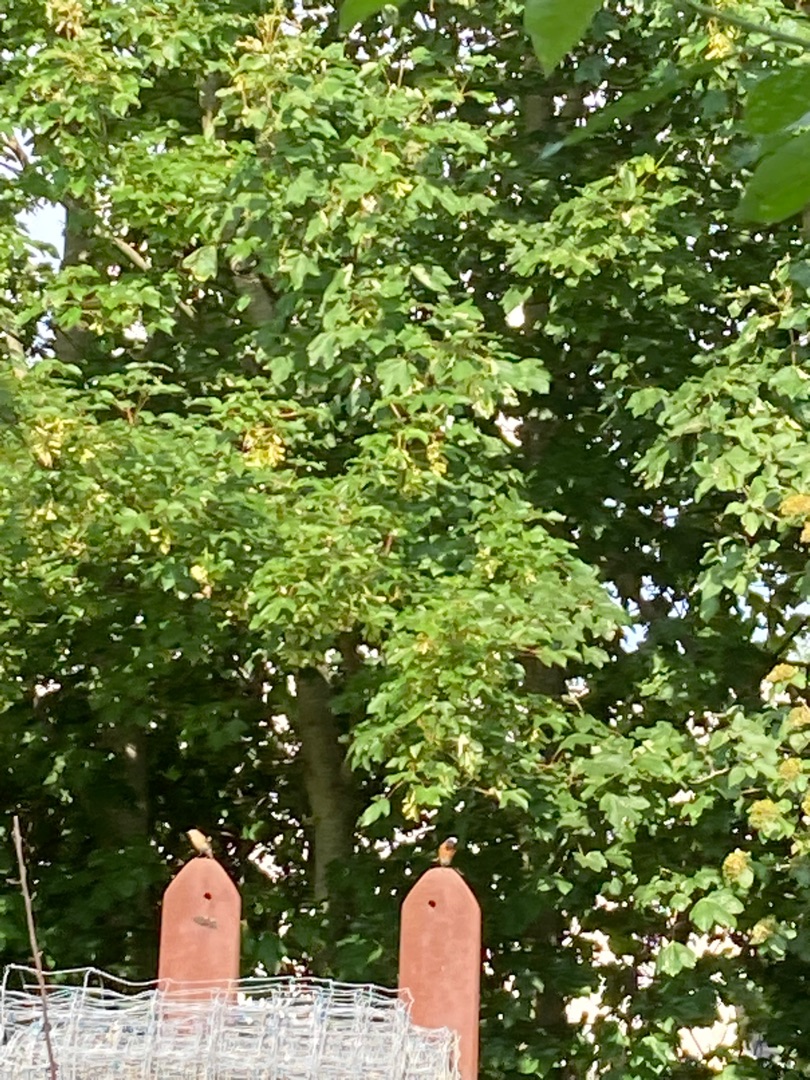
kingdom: Animalia
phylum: Chordata
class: Aves
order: Passeriformes
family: Muscicapidae
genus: Phoenicurus
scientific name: Phoenicurus phoenicurus
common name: Rødstjert
